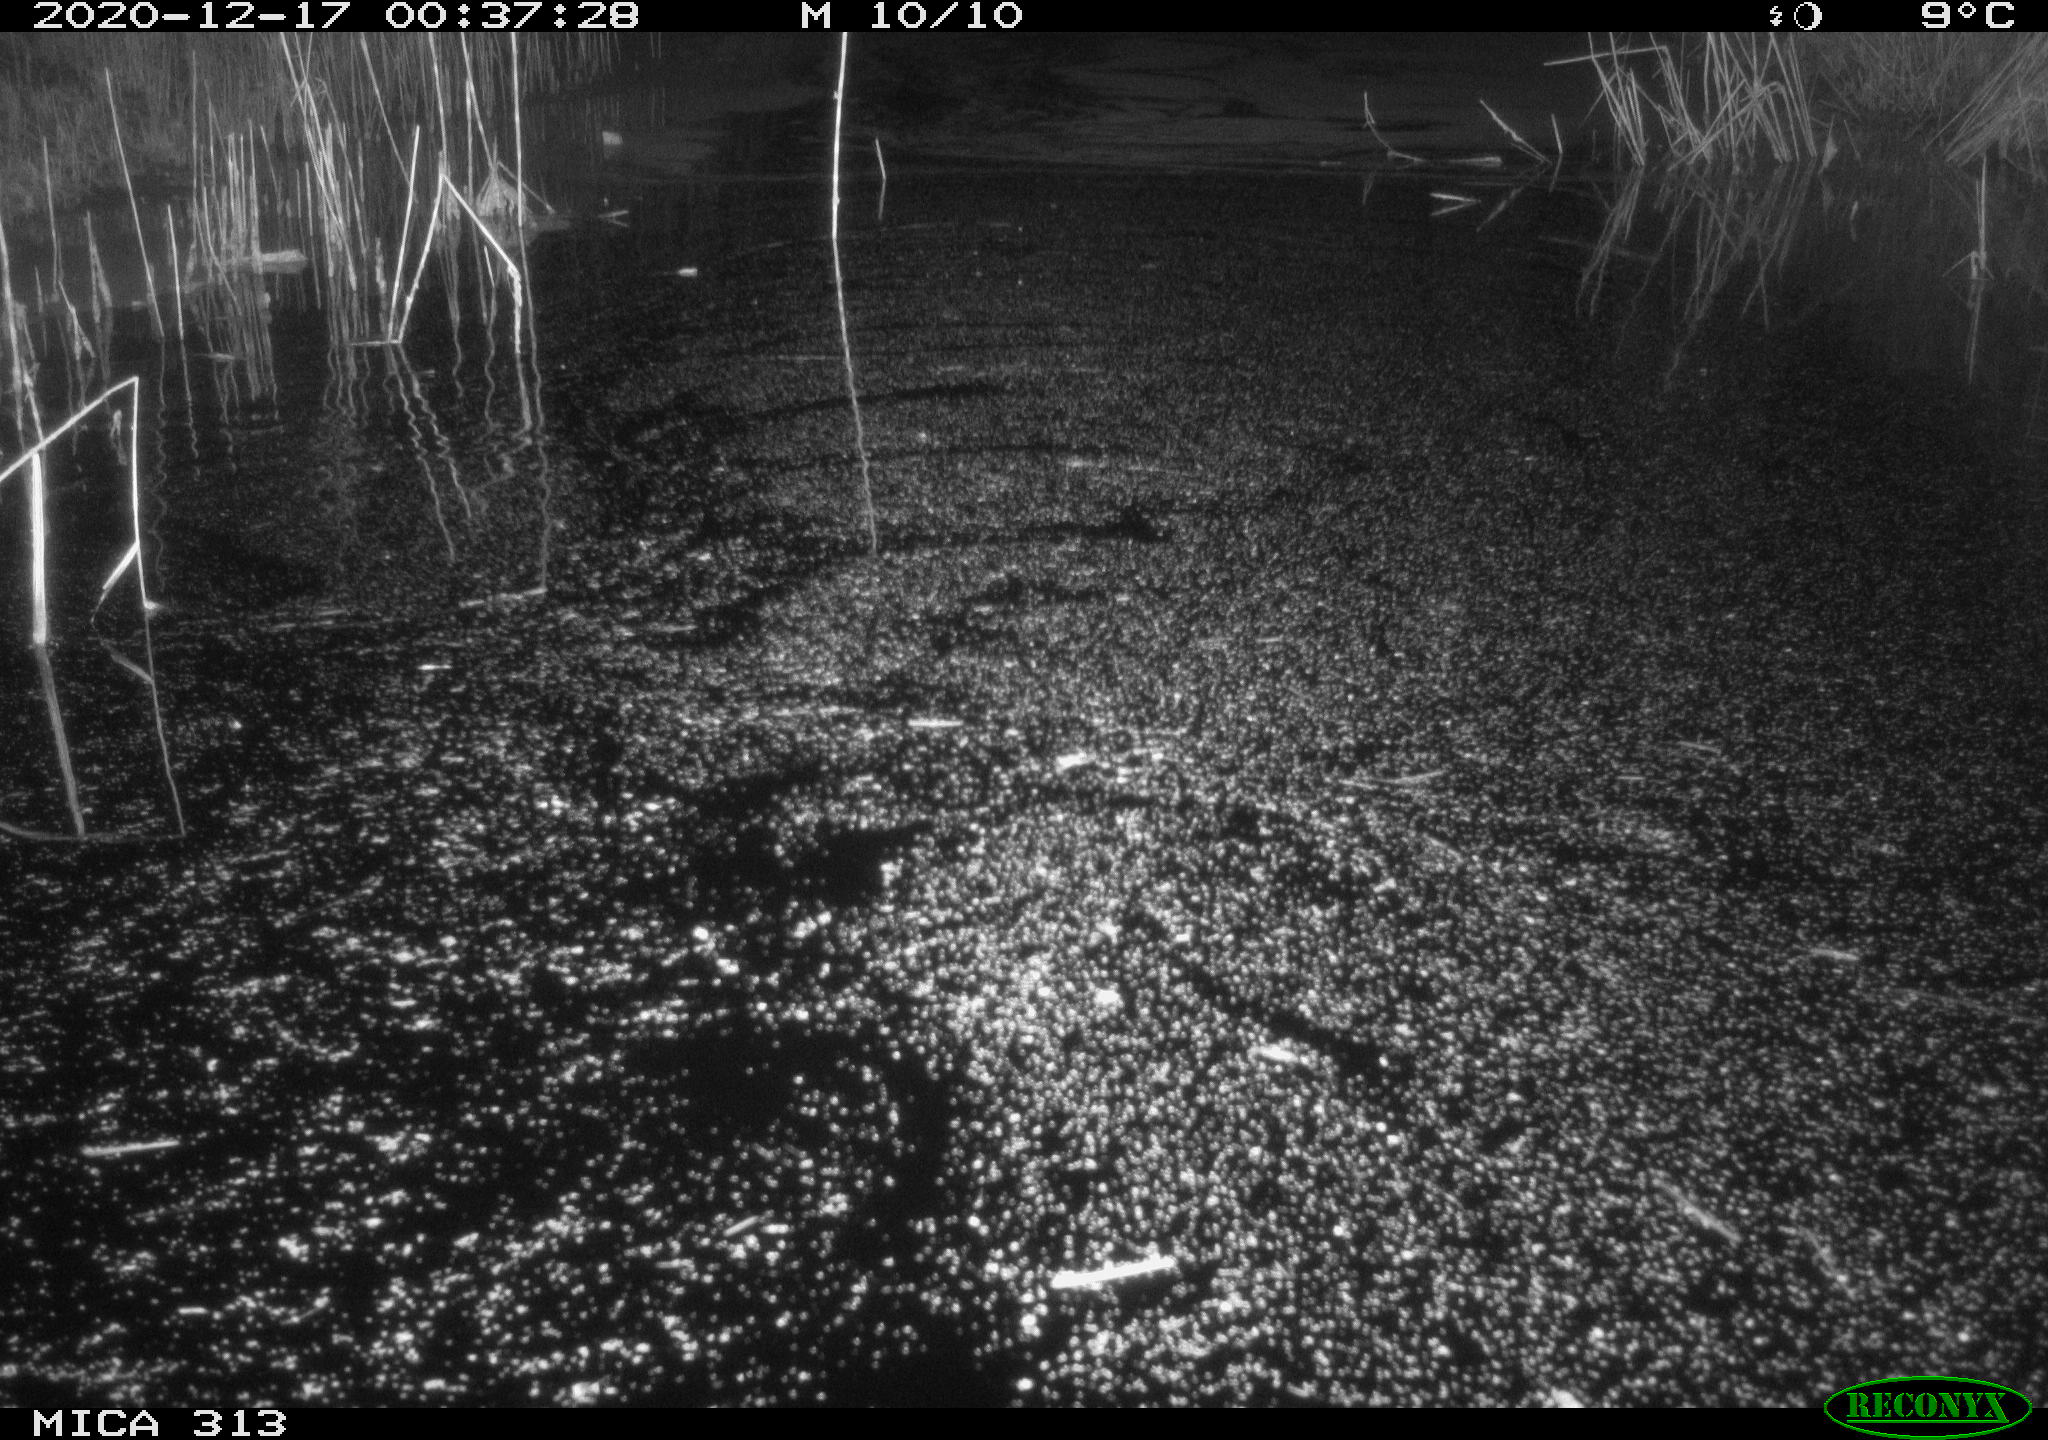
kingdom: Animalia
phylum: Chordata
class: Mammalia
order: Rodentia
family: Muridae
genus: Rattus
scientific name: Rattus norvegicus
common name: Brown rat
